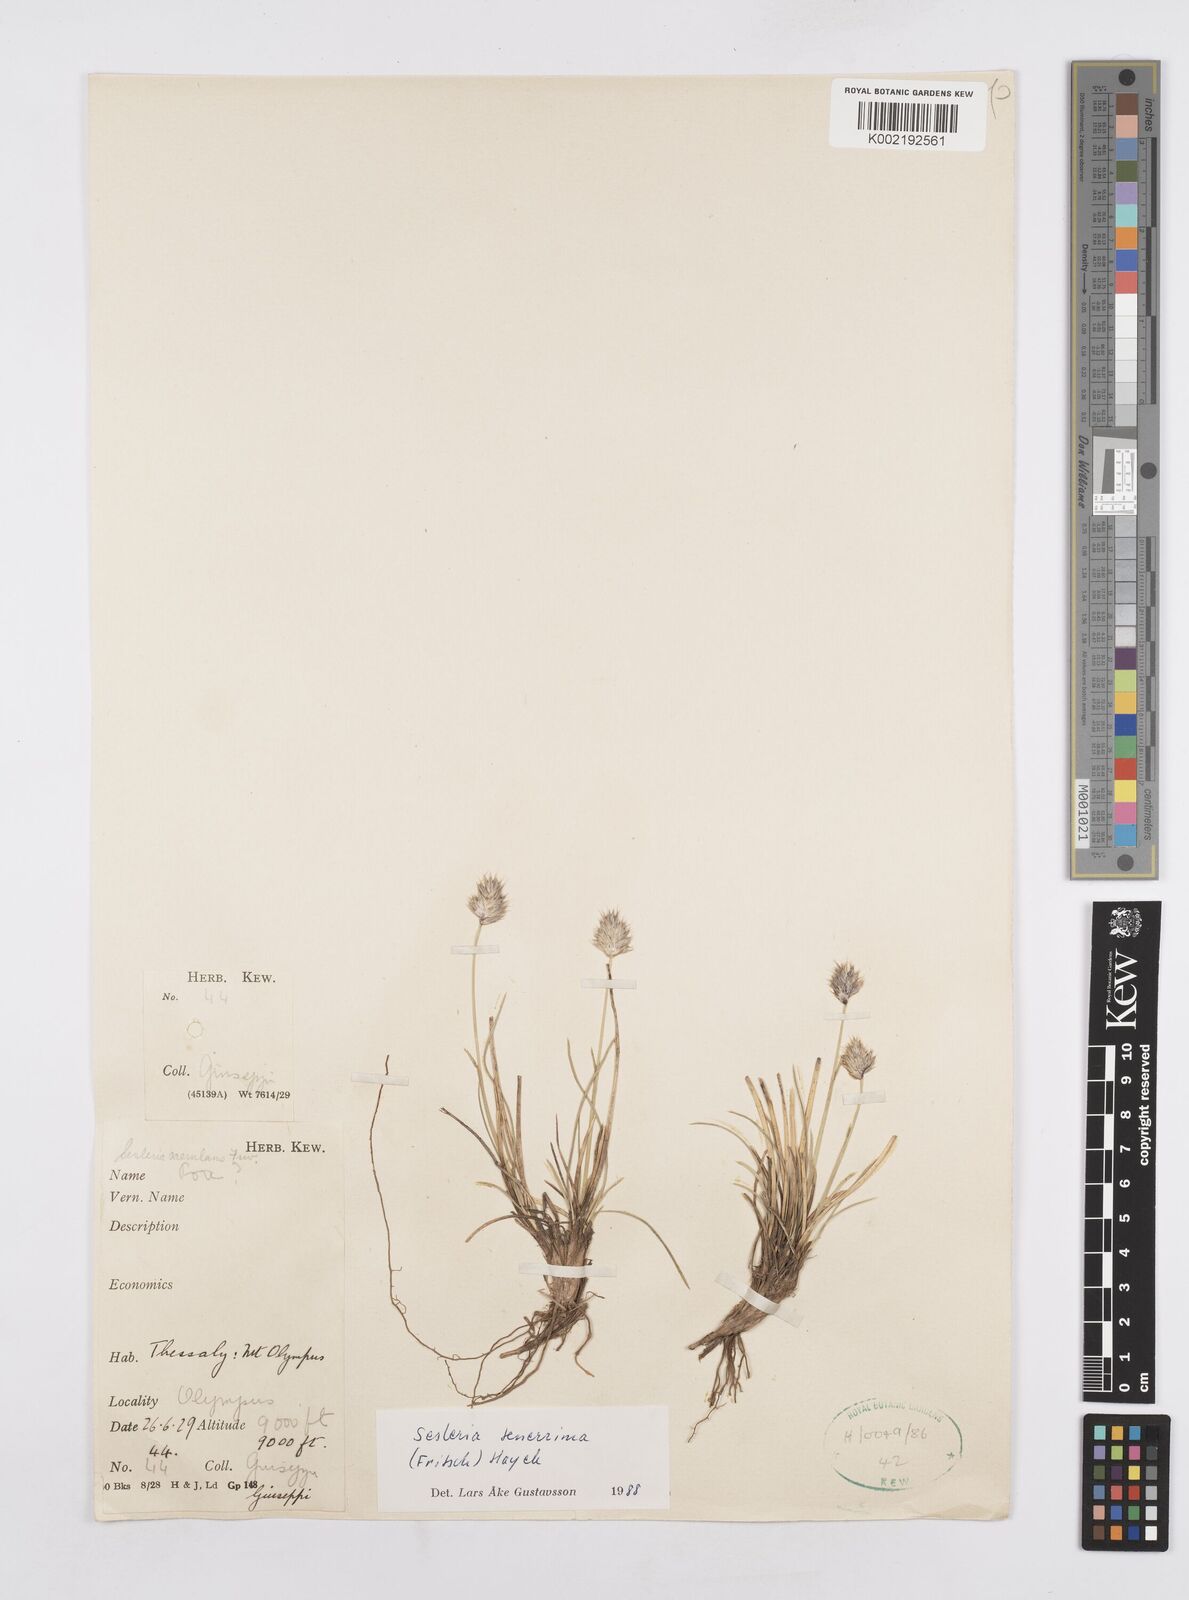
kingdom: Plantae
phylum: Tracheophyta
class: Liliopsida
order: Poales
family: Poaceae
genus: Sesleria
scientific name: Sesleria tenerrima
